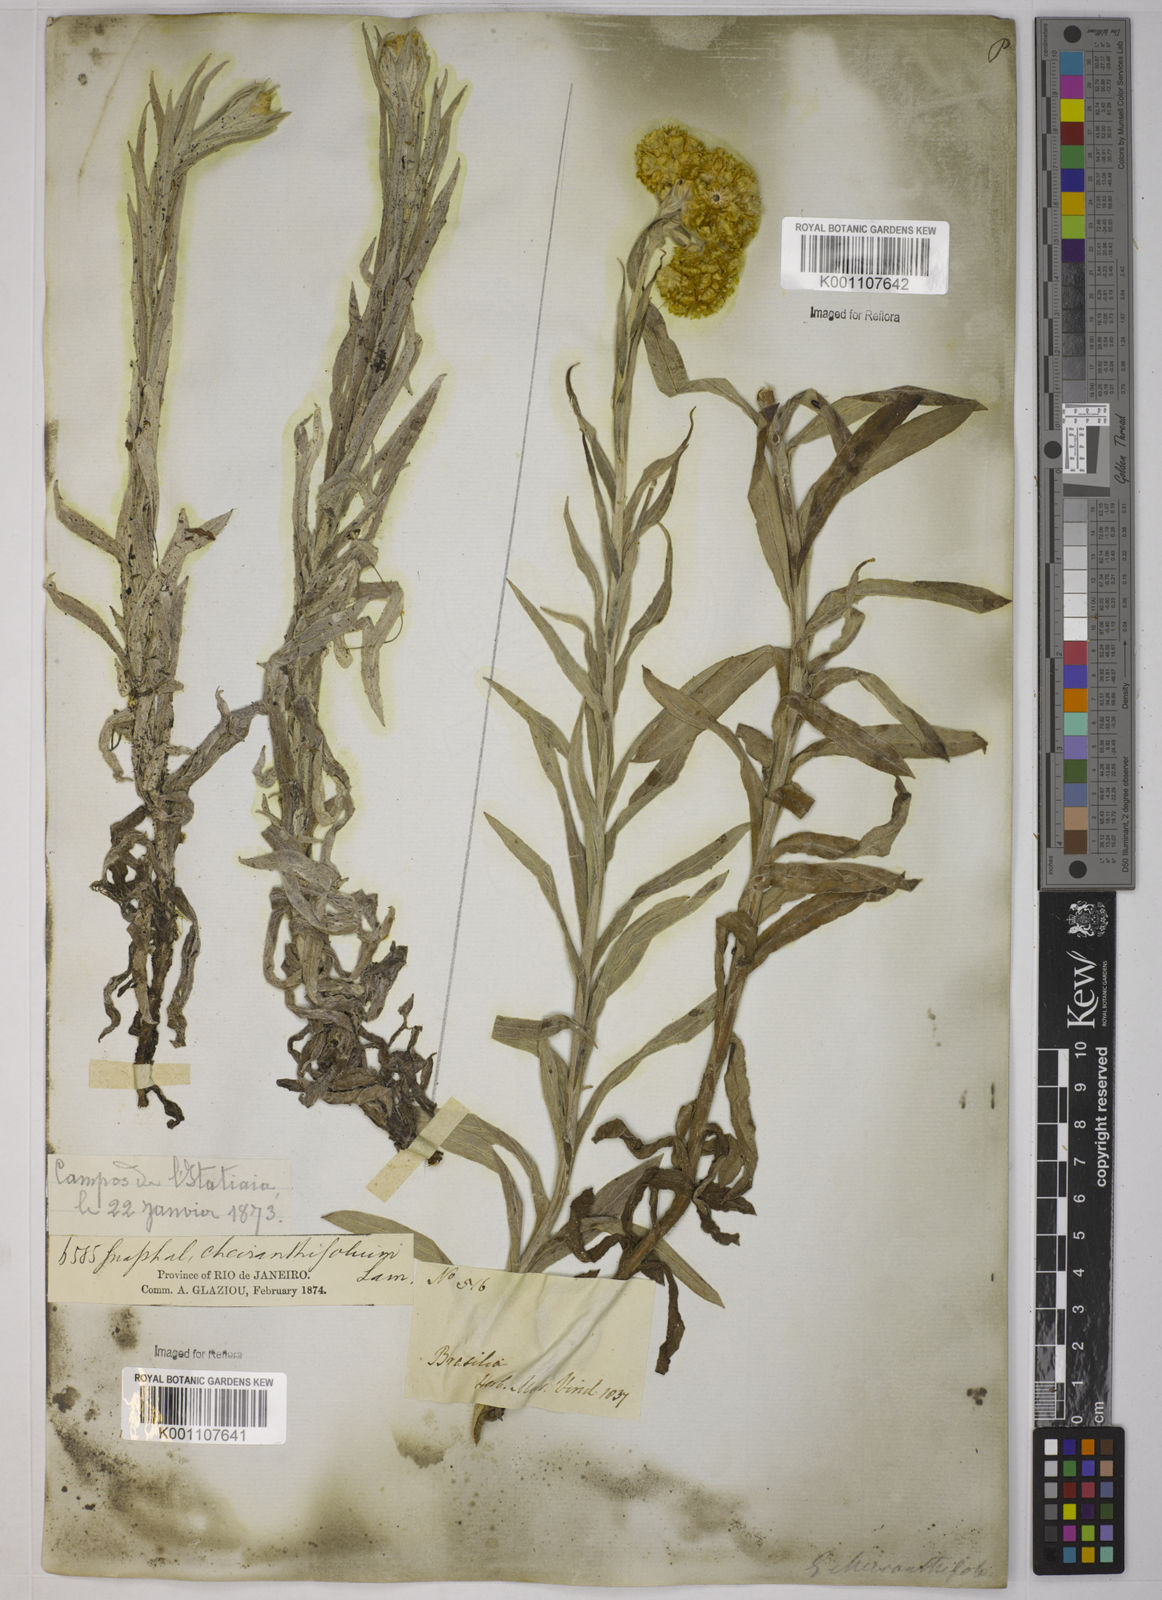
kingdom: Plantae
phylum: Tracheophyta
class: Magnoliopsida
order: Asterales
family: Asteraceae
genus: Pseudognaphalium
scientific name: Pseudognaphalium cheiranthifolium
